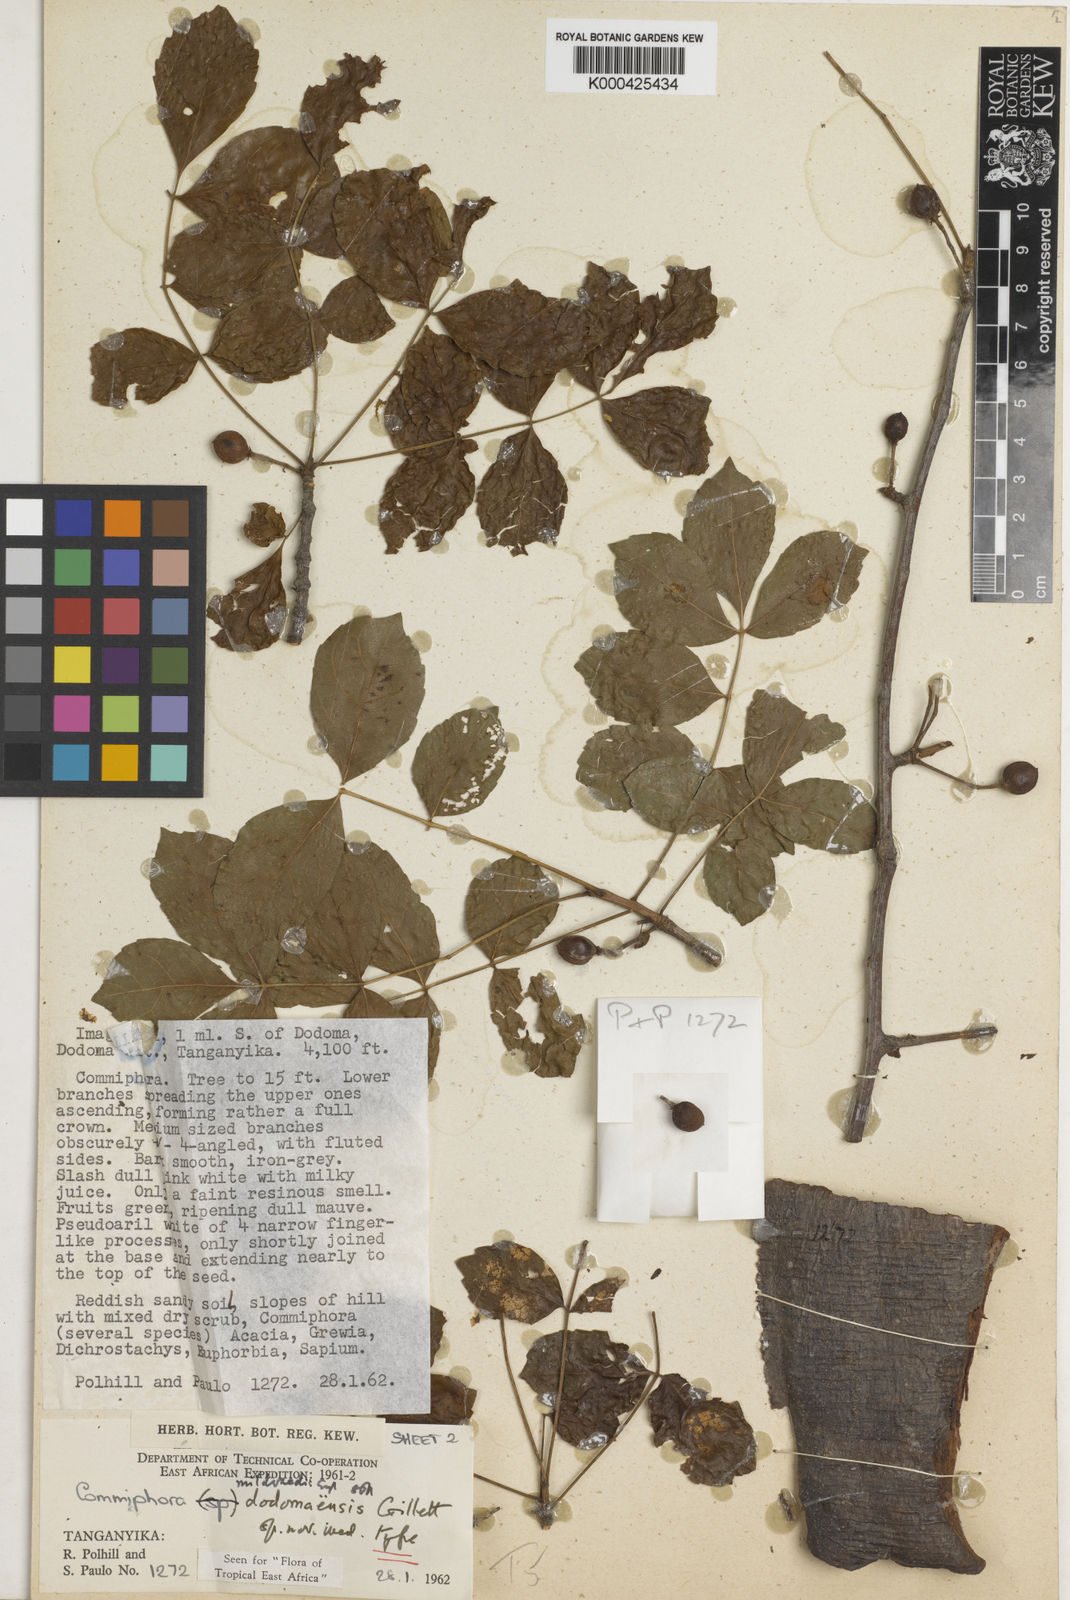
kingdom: Plantae
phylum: Tracheophyta
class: Magnoliopsida
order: Sapindales
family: Burseraceae
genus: Commiphora
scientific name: Commiphora mildbraedii
